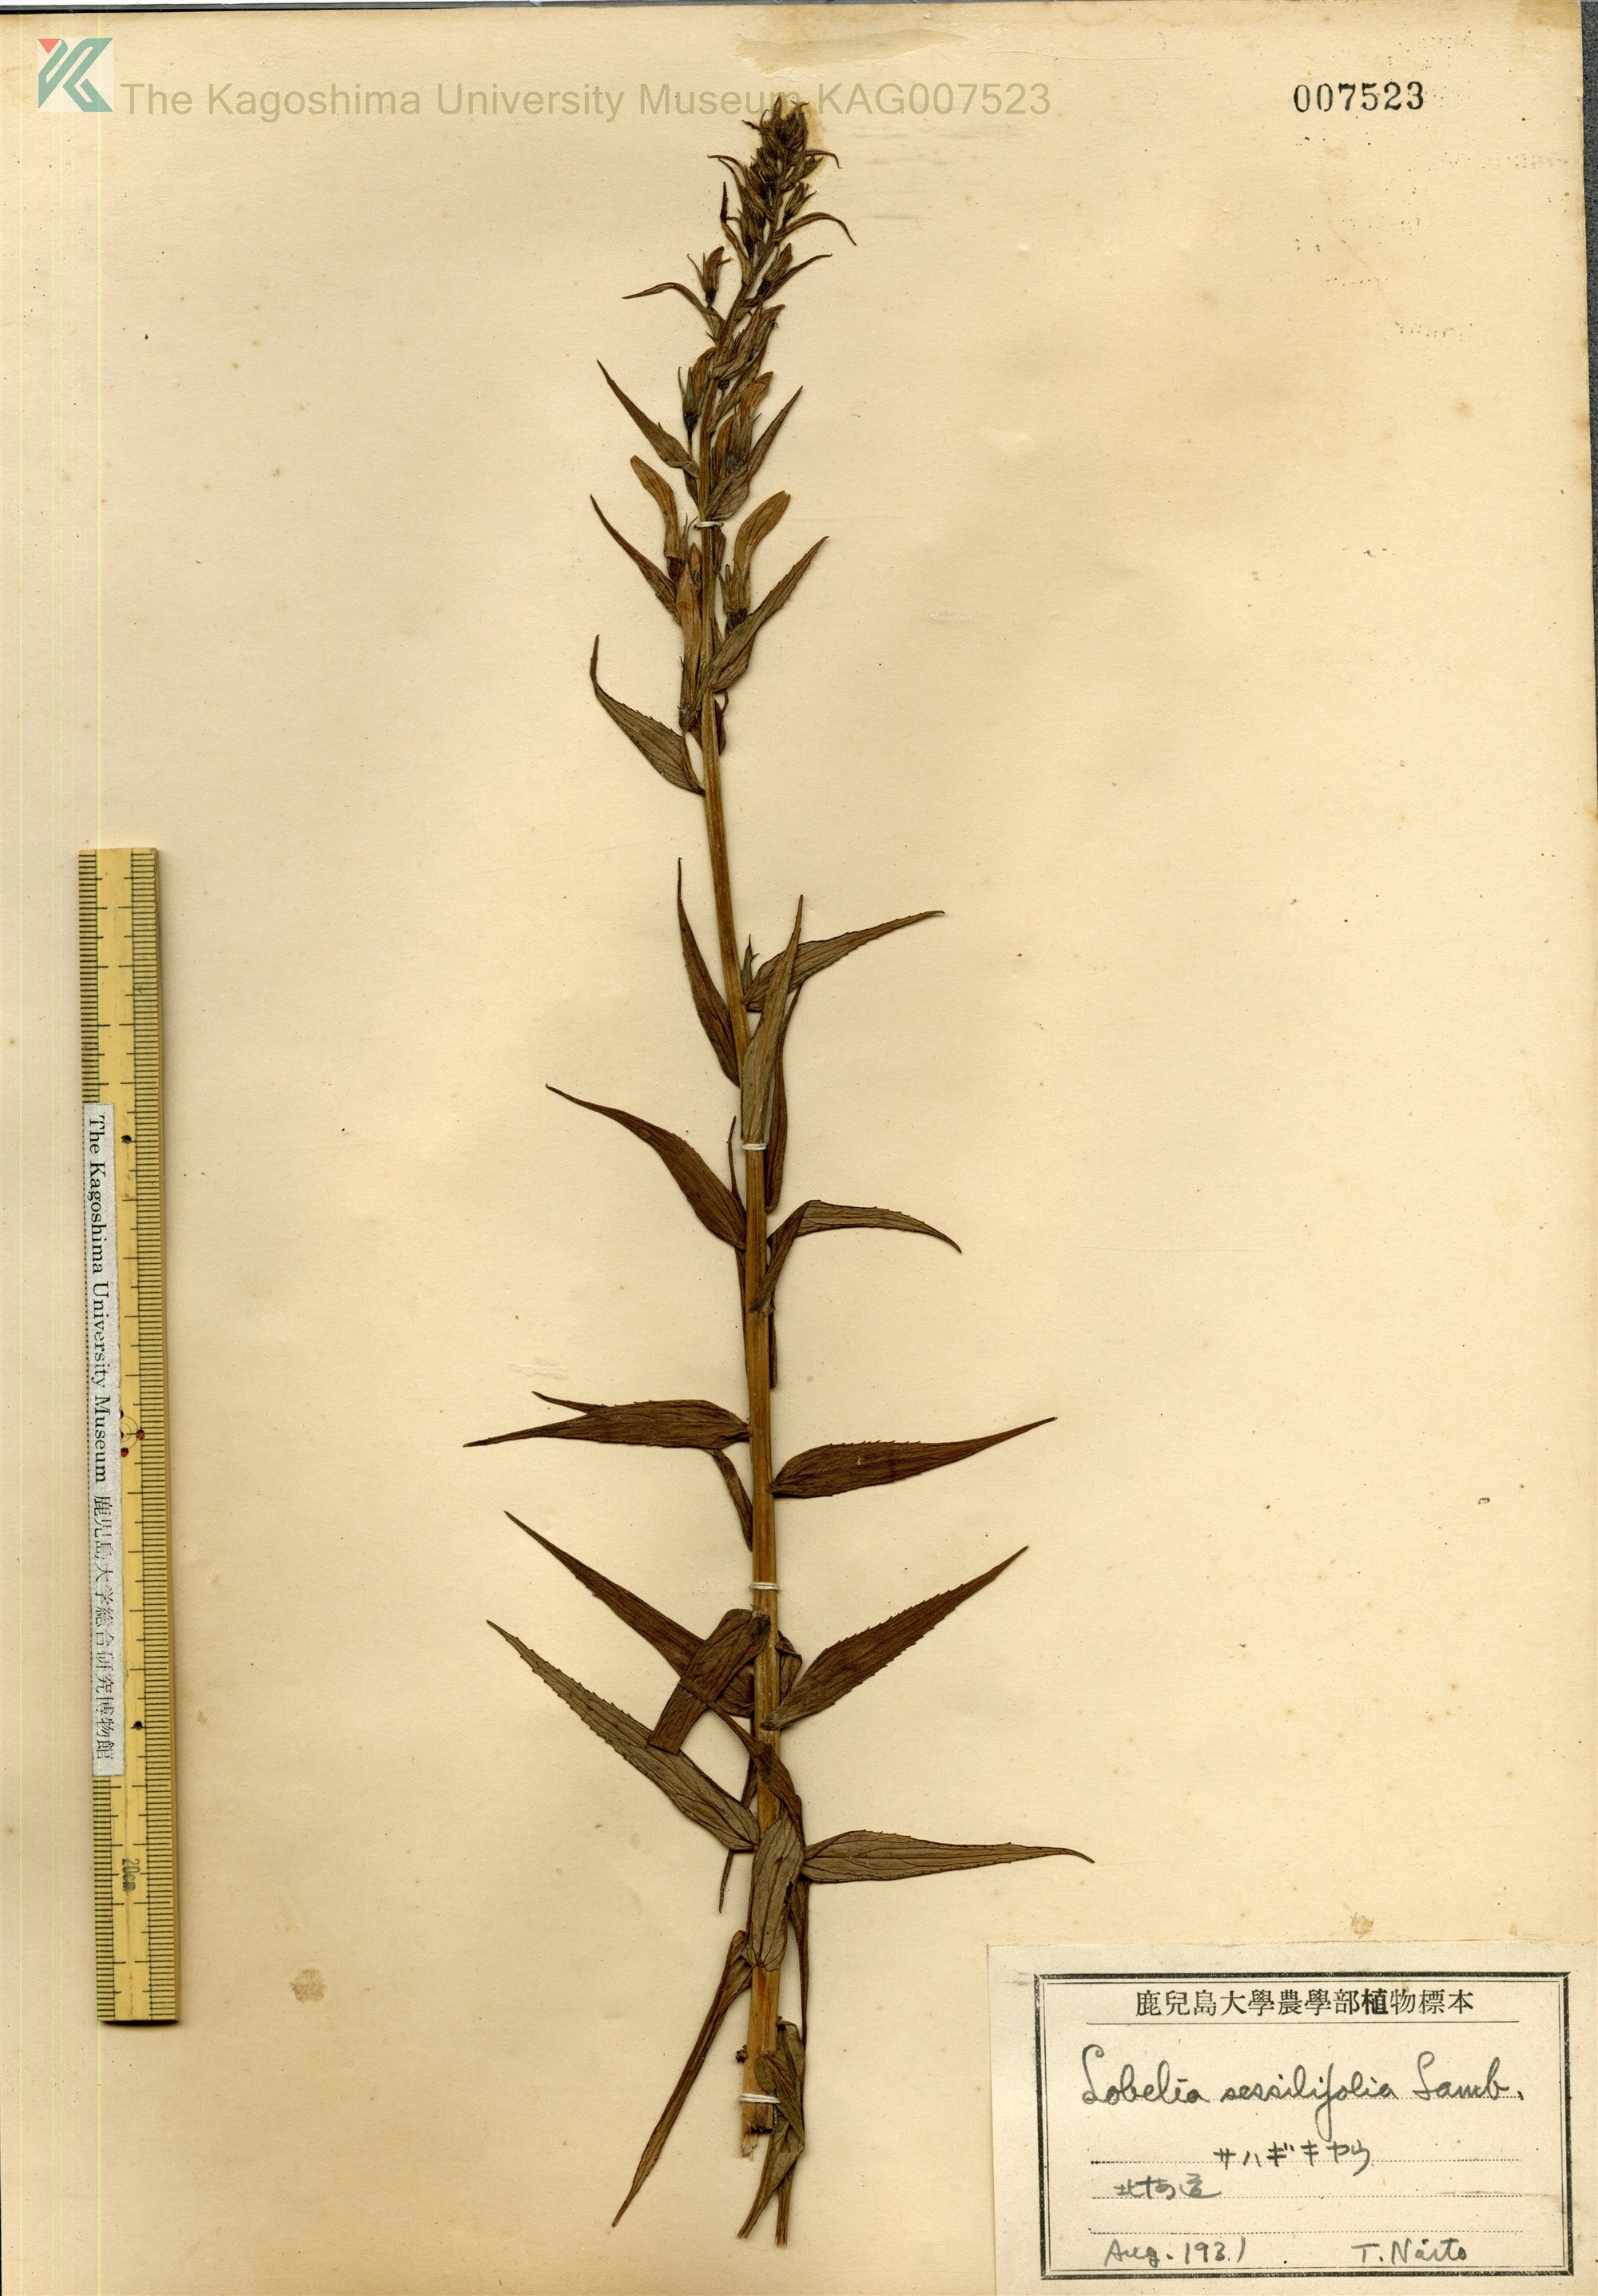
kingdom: Plantae
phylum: Tracheophyta
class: Magnoliopsida
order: Asterales
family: Campanulaceae
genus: Lobelia
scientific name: Lobelia sessilifolia
